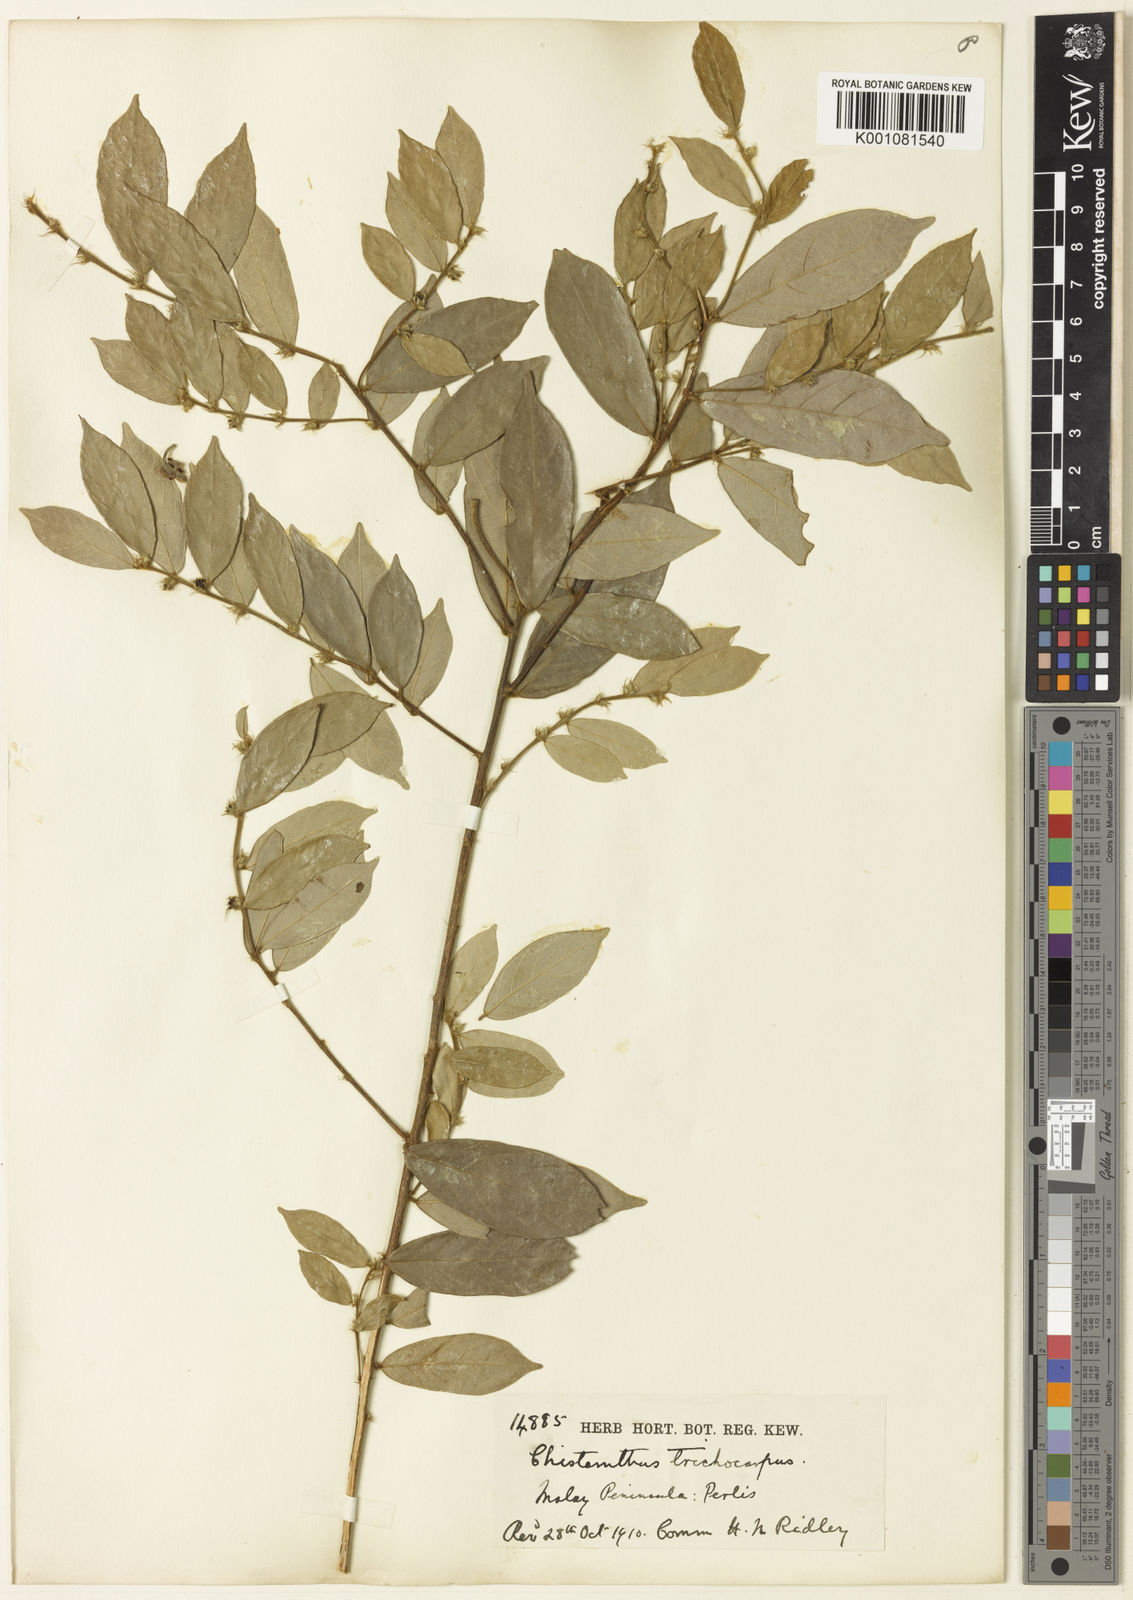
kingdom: Plantae
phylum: Tracheophyta
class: Magnoliopsida
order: Malpighiales
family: Phyllanthaceae
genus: Cleistanthus
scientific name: Cleistanthus polyphyllus
